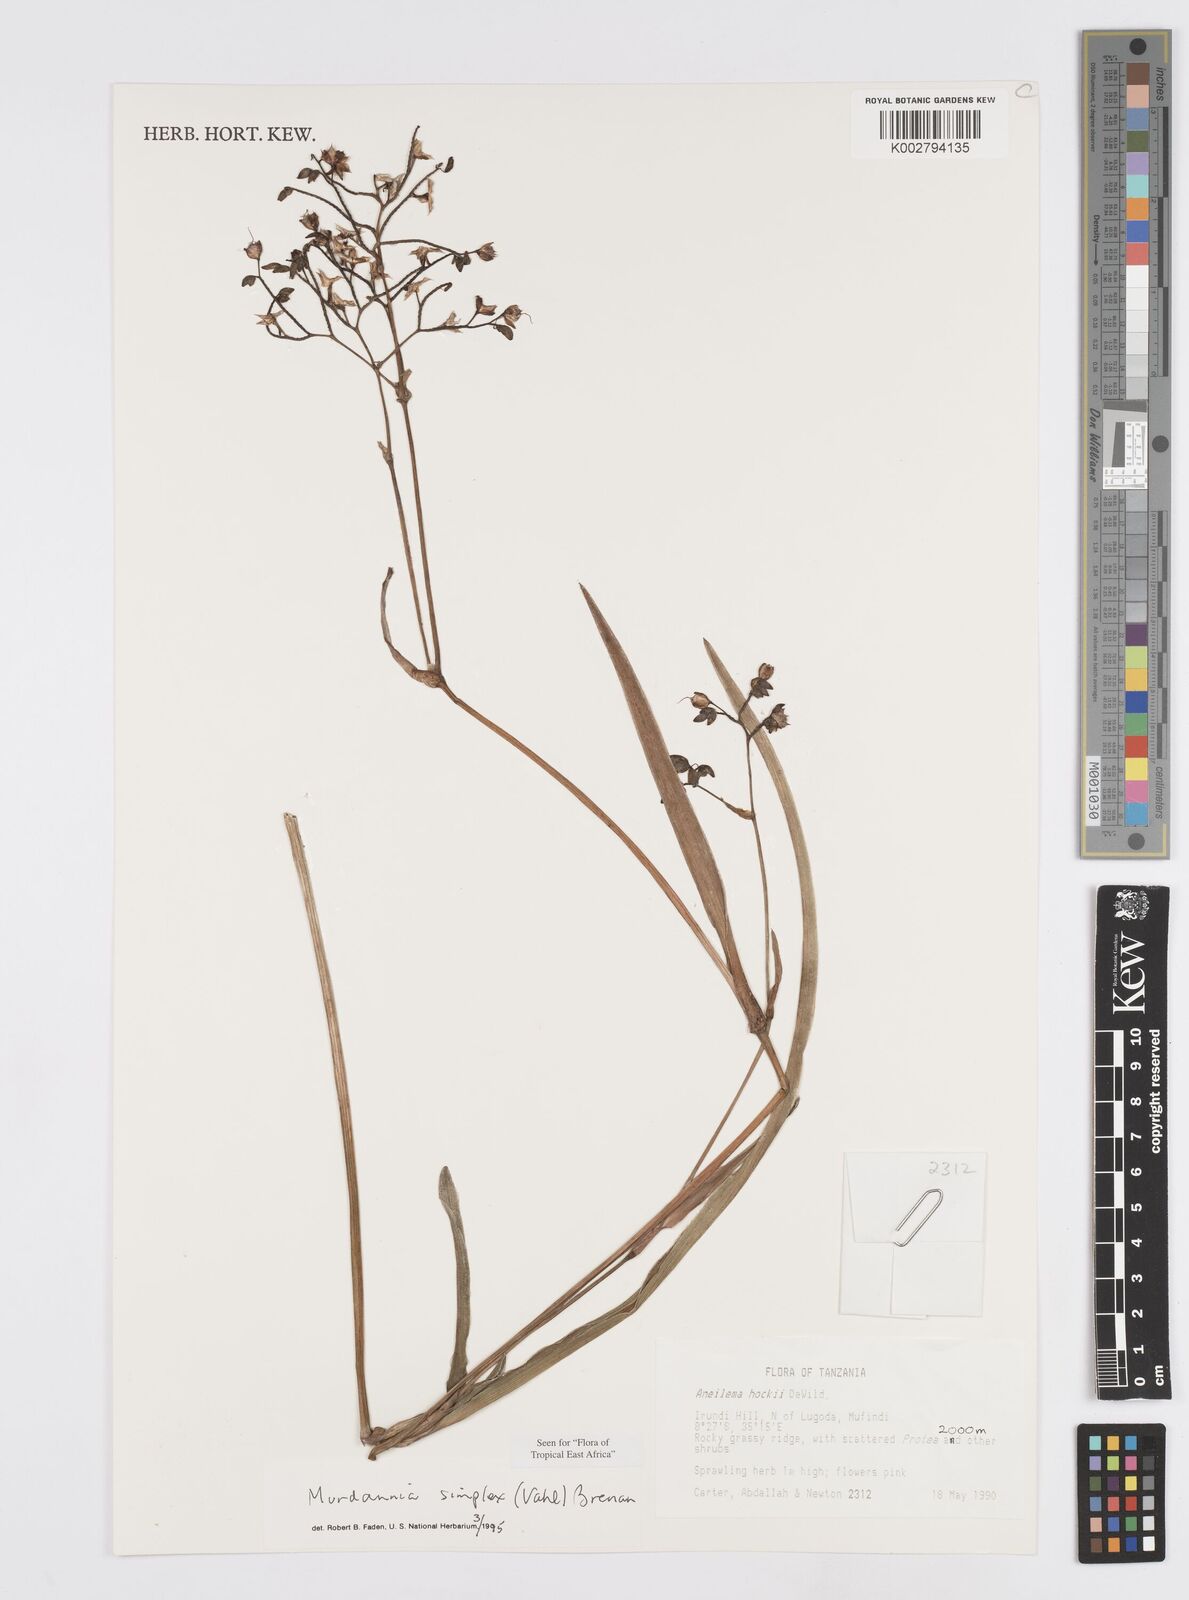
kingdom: Plantae
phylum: Tracheophyta
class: Liliopsida
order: Commelinales
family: Commelinaceae
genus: Murdannia
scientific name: Murdannia simplex
